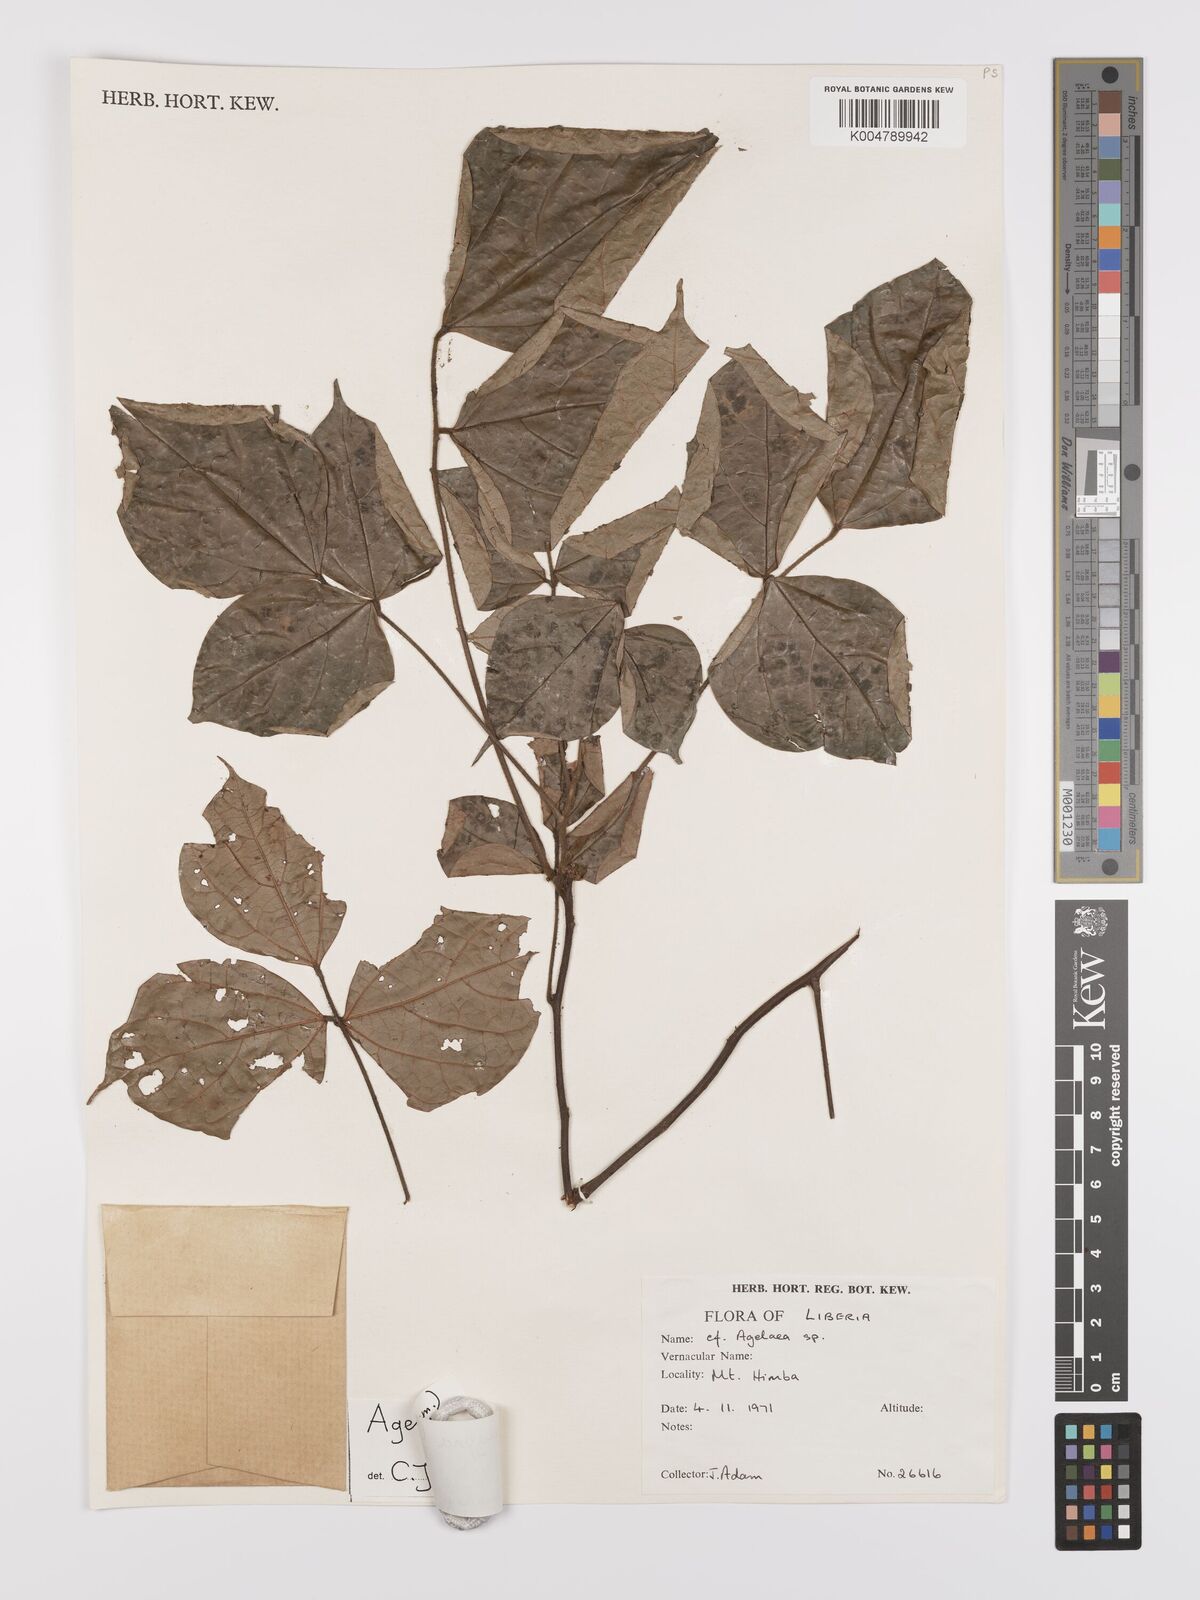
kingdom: Plantae
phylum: Tracheophyta
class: Magnoliopsida
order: Oxalidales
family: Connaraceae
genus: Agelaea
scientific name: Agelaea pentagyna
